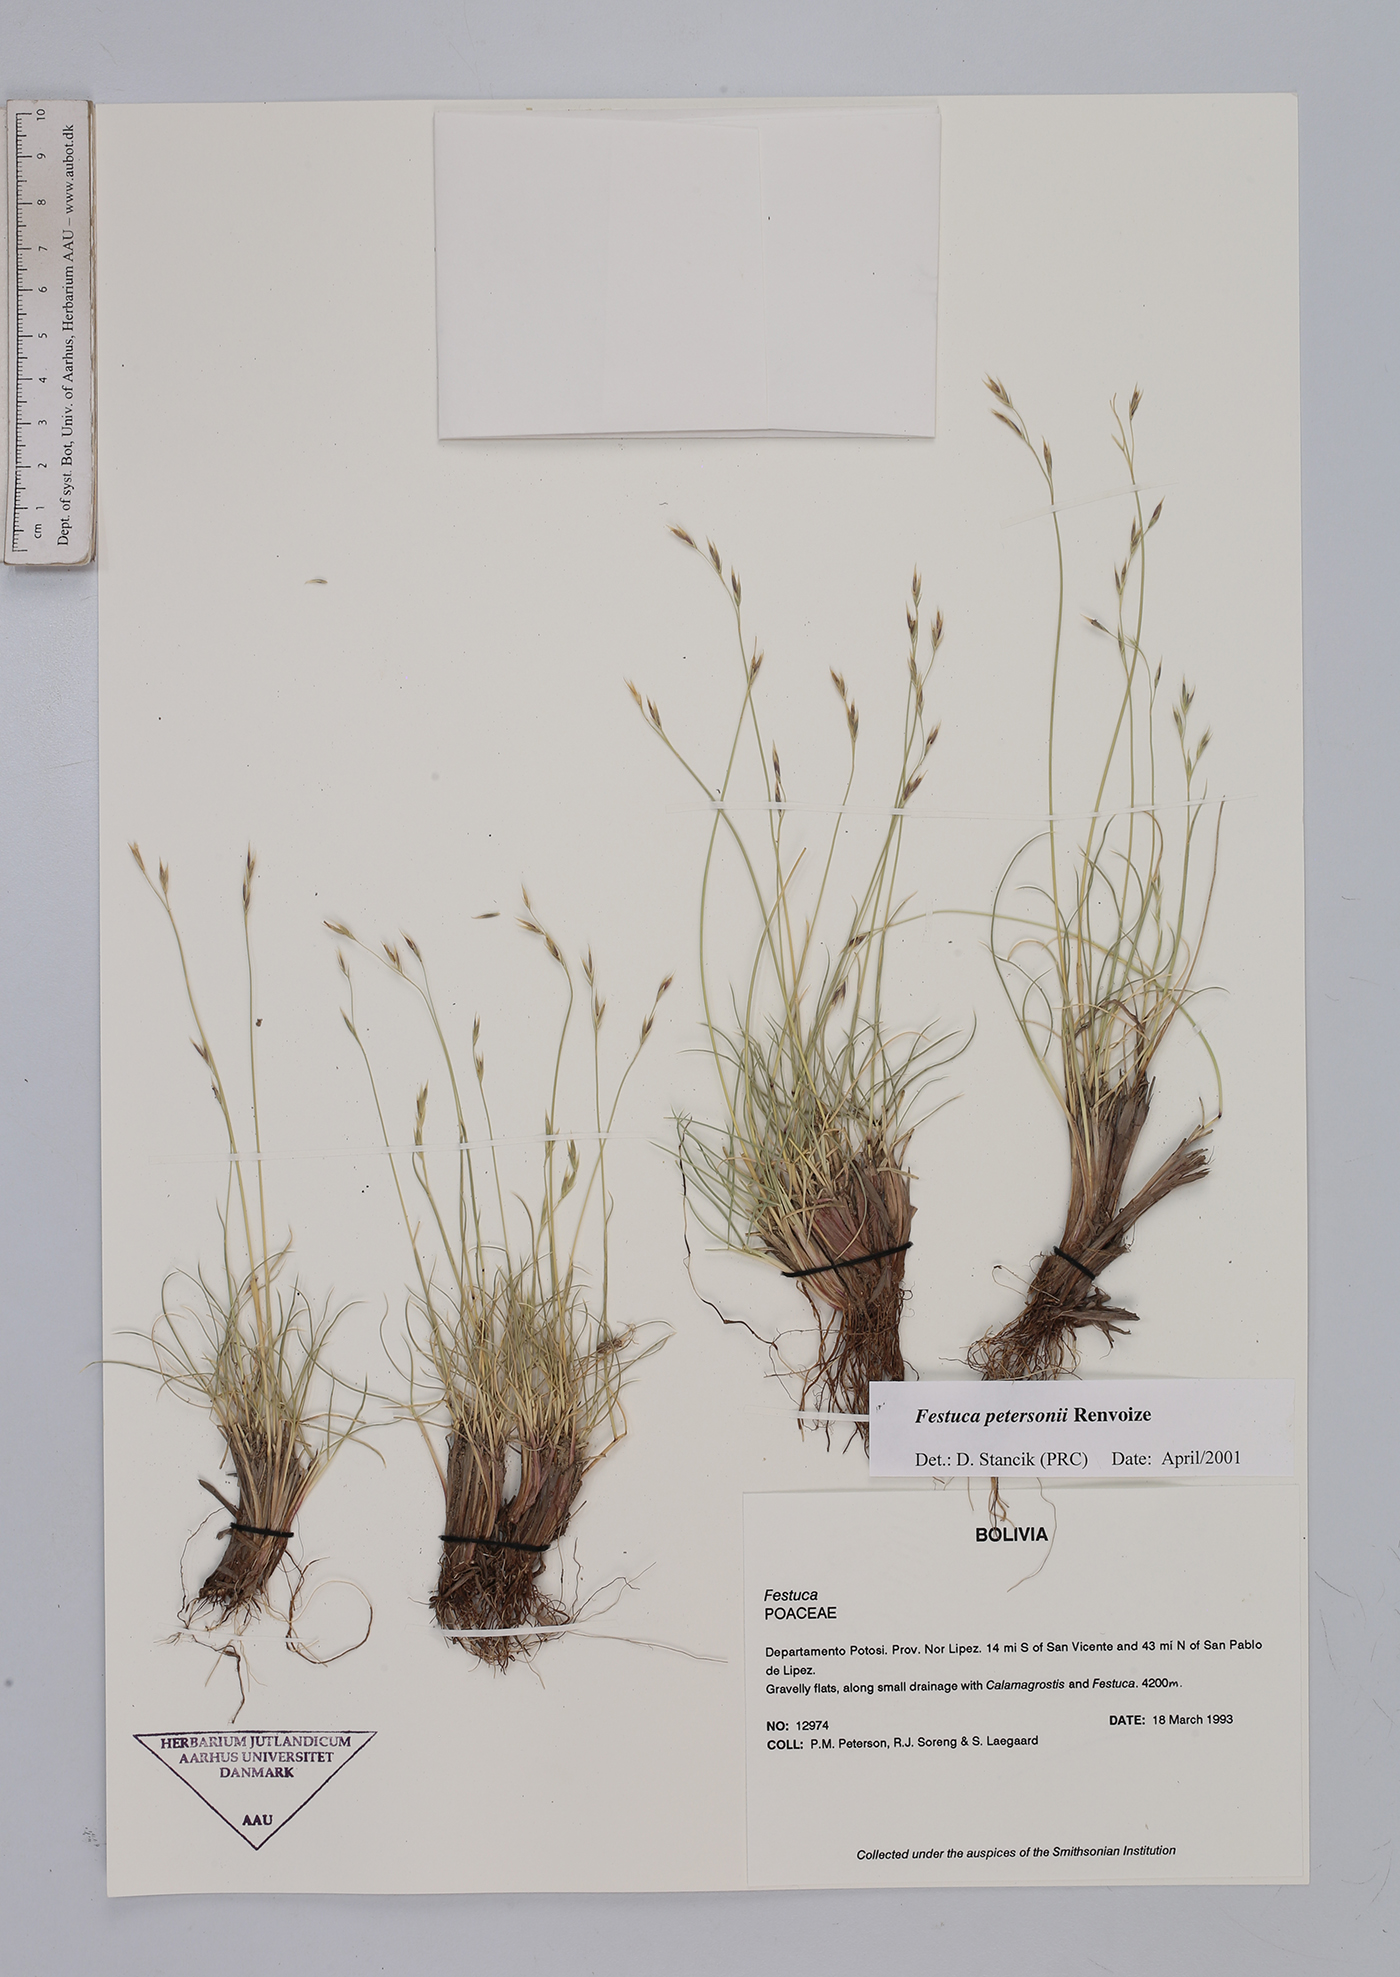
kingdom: Plantae
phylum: Tracheophyta
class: Liliopsida
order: Poales
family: Poaceae
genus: Festuca
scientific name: Festuca rigescens
